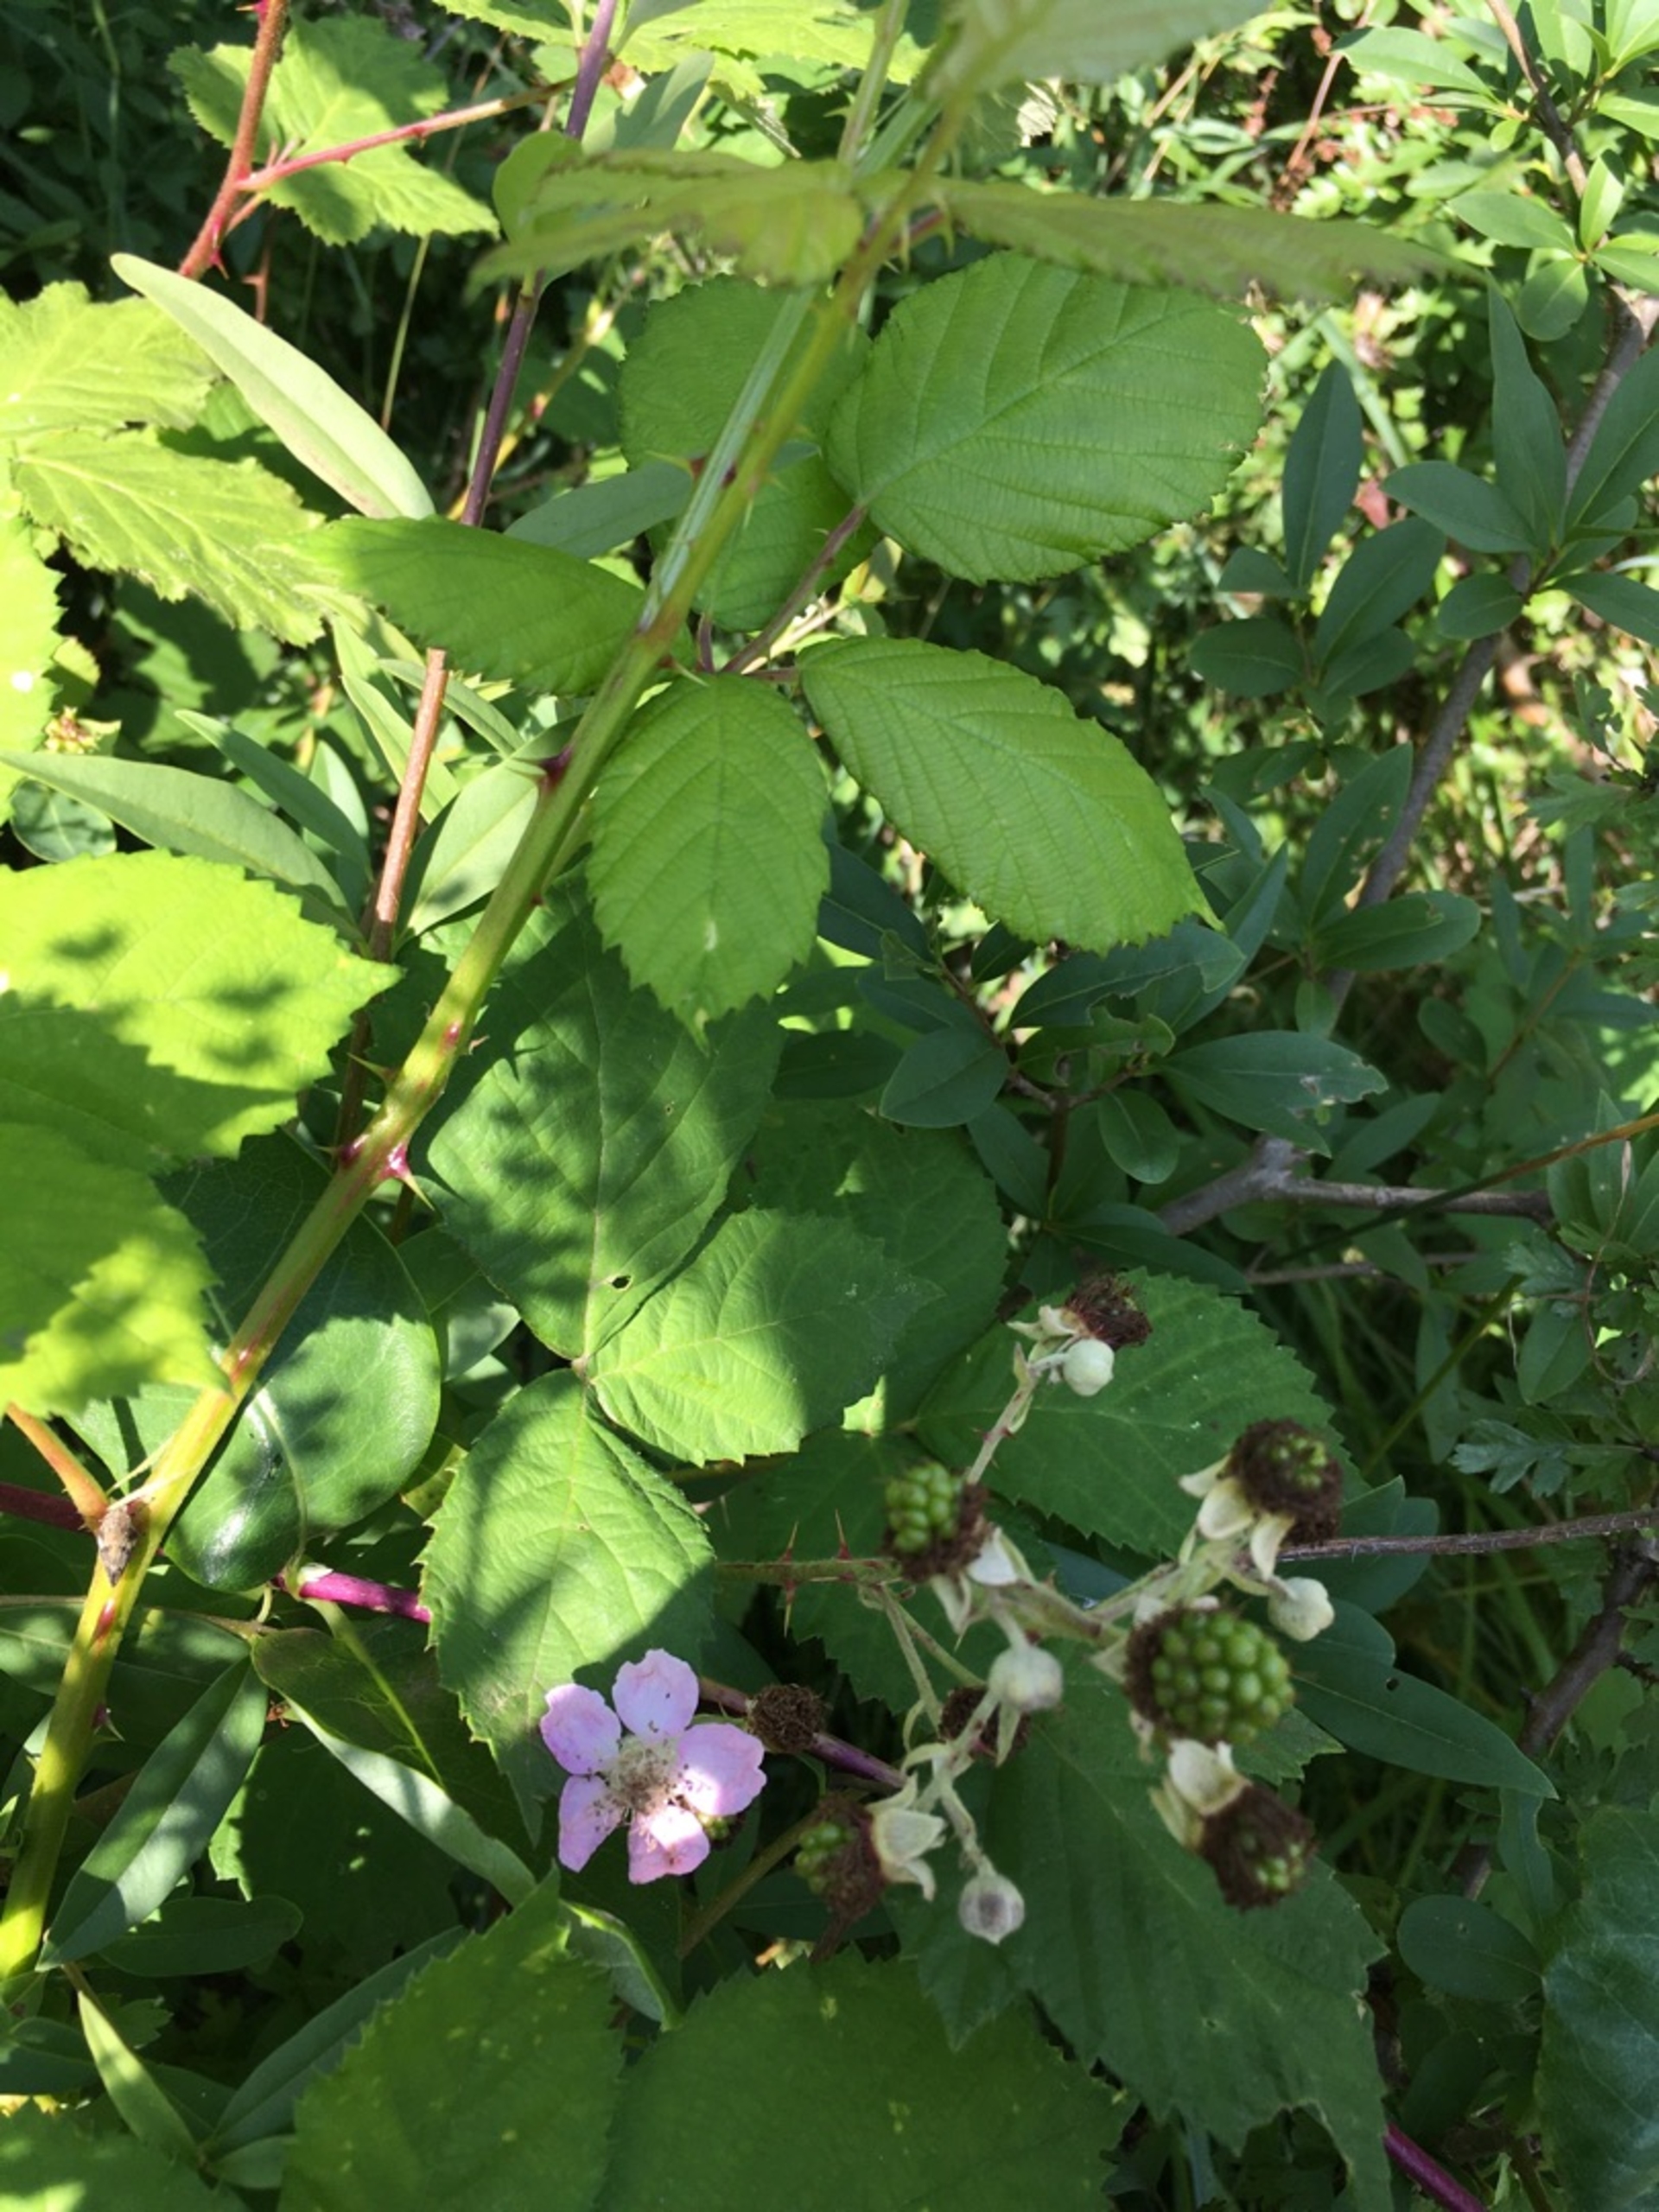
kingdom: Plantae
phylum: Tracheophyta
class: Magnoliopsida
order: Rosales
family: Rosaceae
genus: Rubus
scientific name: Rubus armeniacus
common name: Armensk brombær
